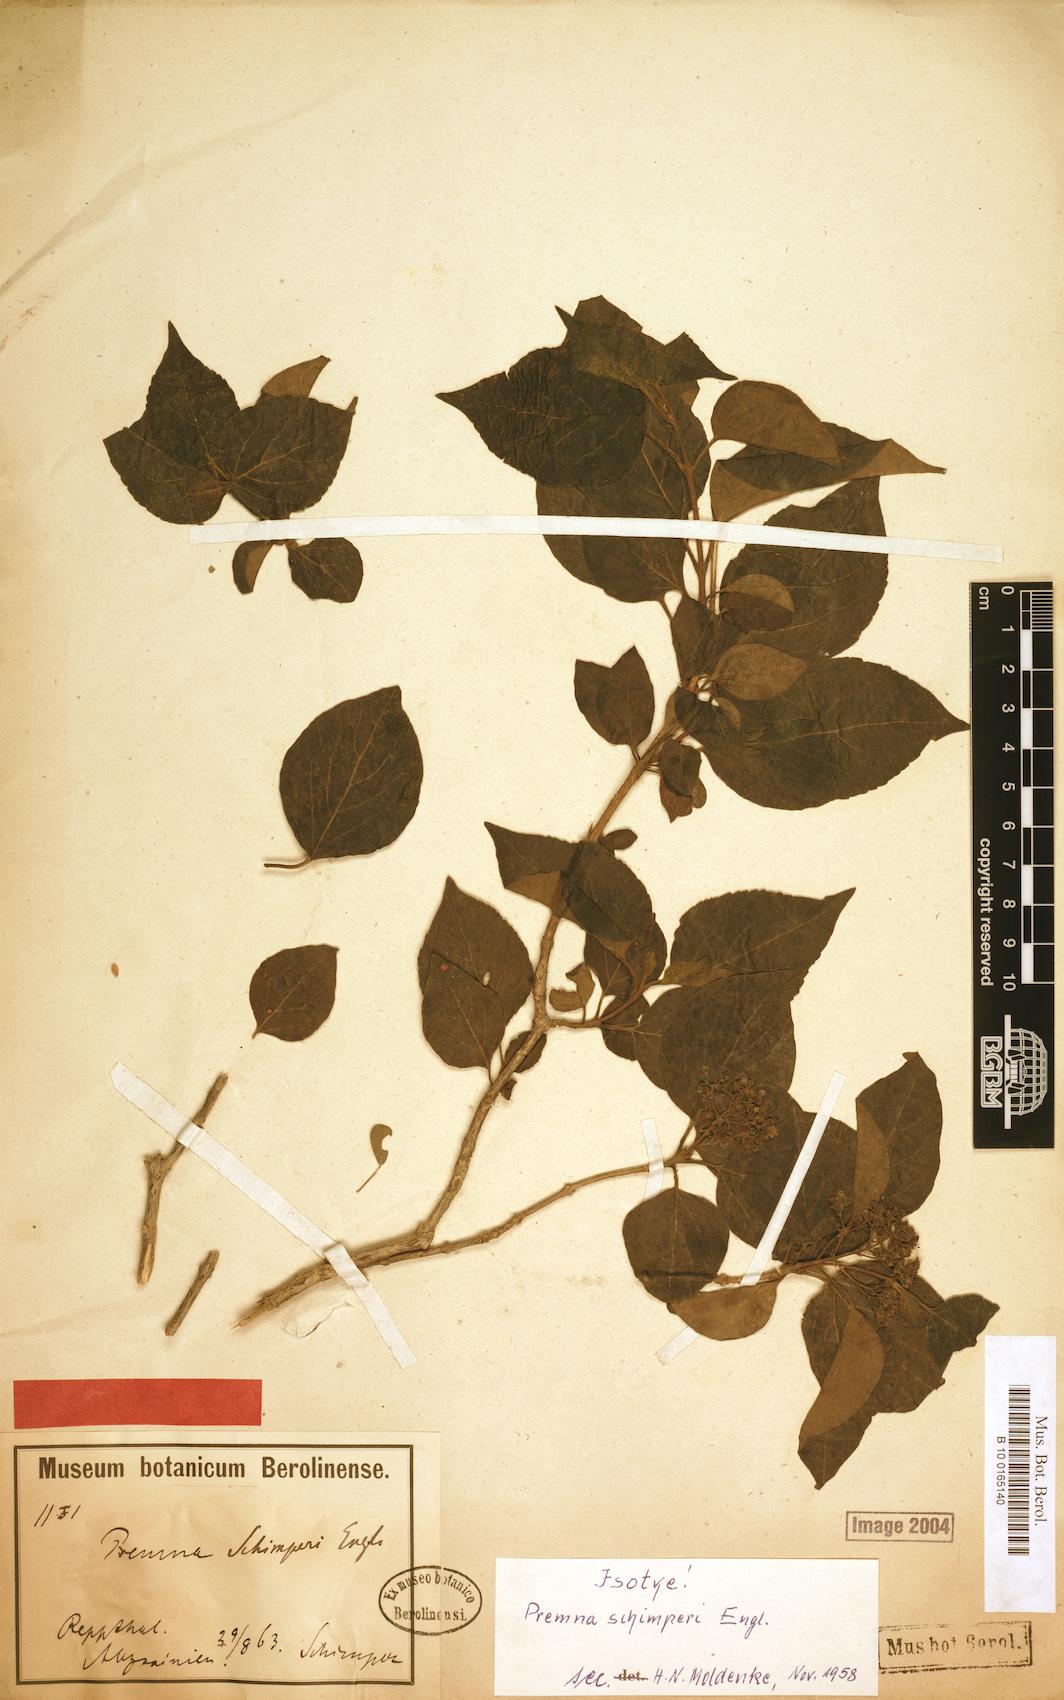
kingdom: Plantae
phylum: Tracheophyta
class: Magnoliopsida
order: Lamiales
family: Lamiaceae
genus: Premna
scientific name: Premna schimperi
